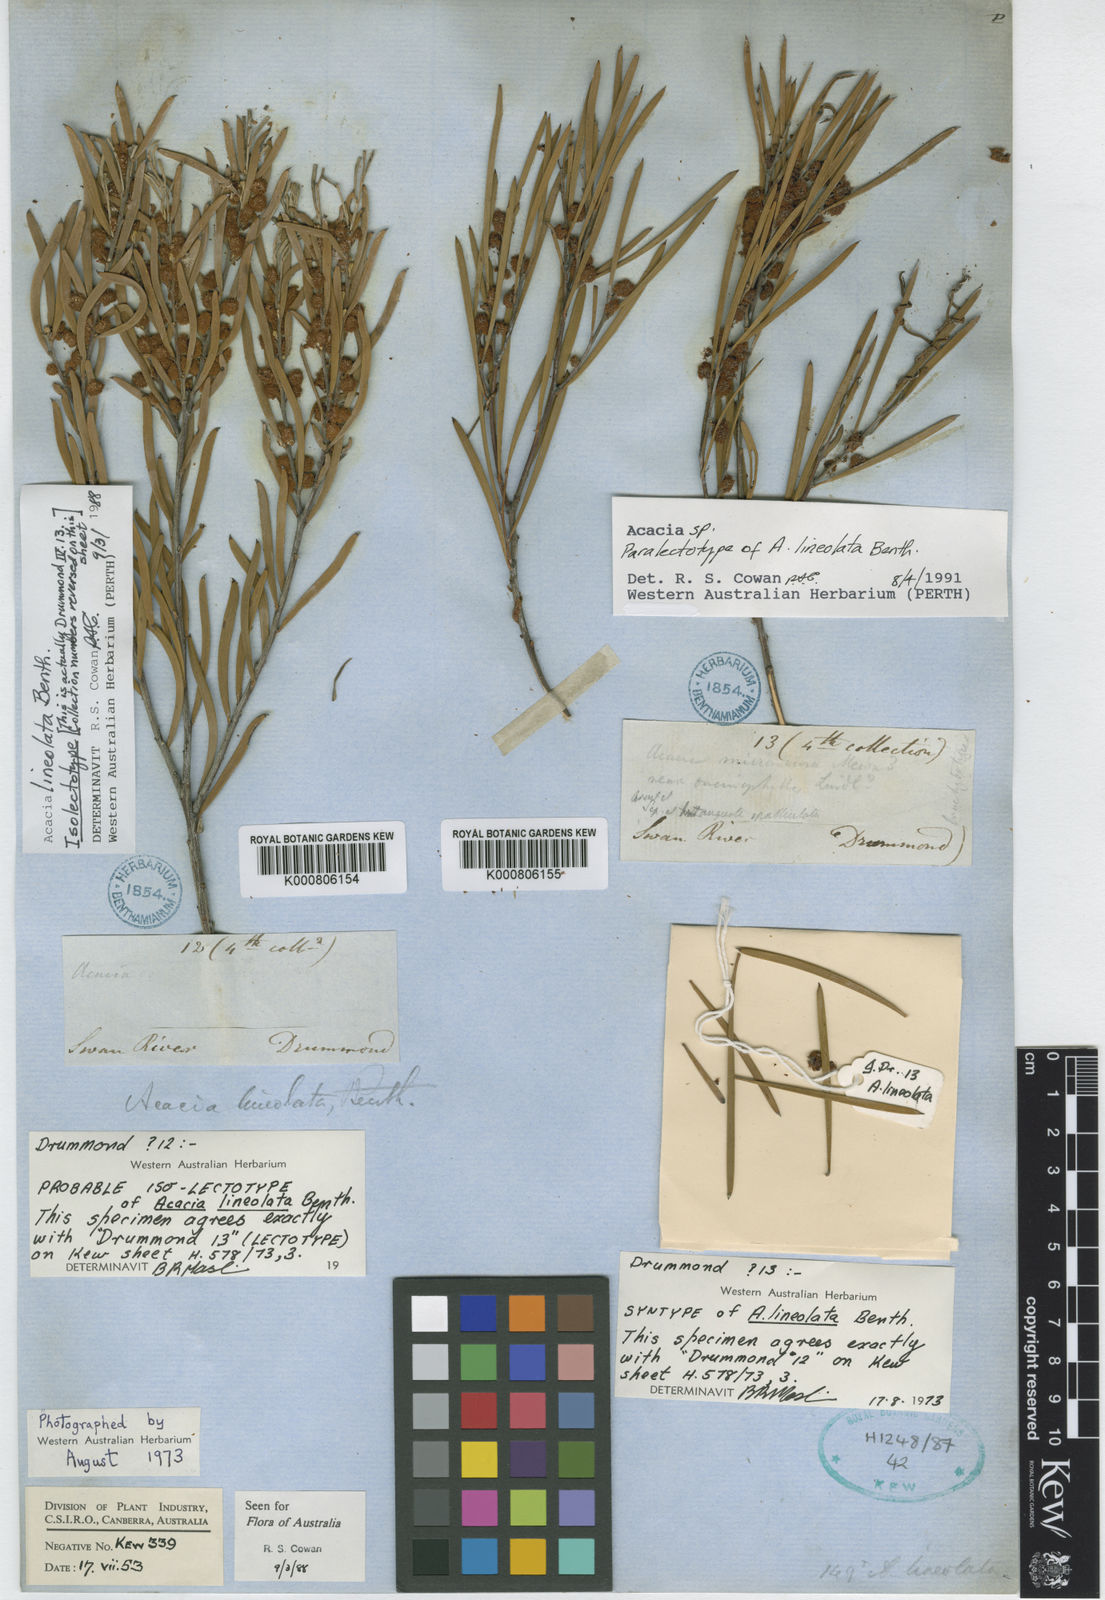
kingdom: Plantae
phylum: Tracheophyta
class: Magnoliopsida
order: Fabales
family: Fabaceae
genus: Acacia
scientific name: Acacia lineolata
